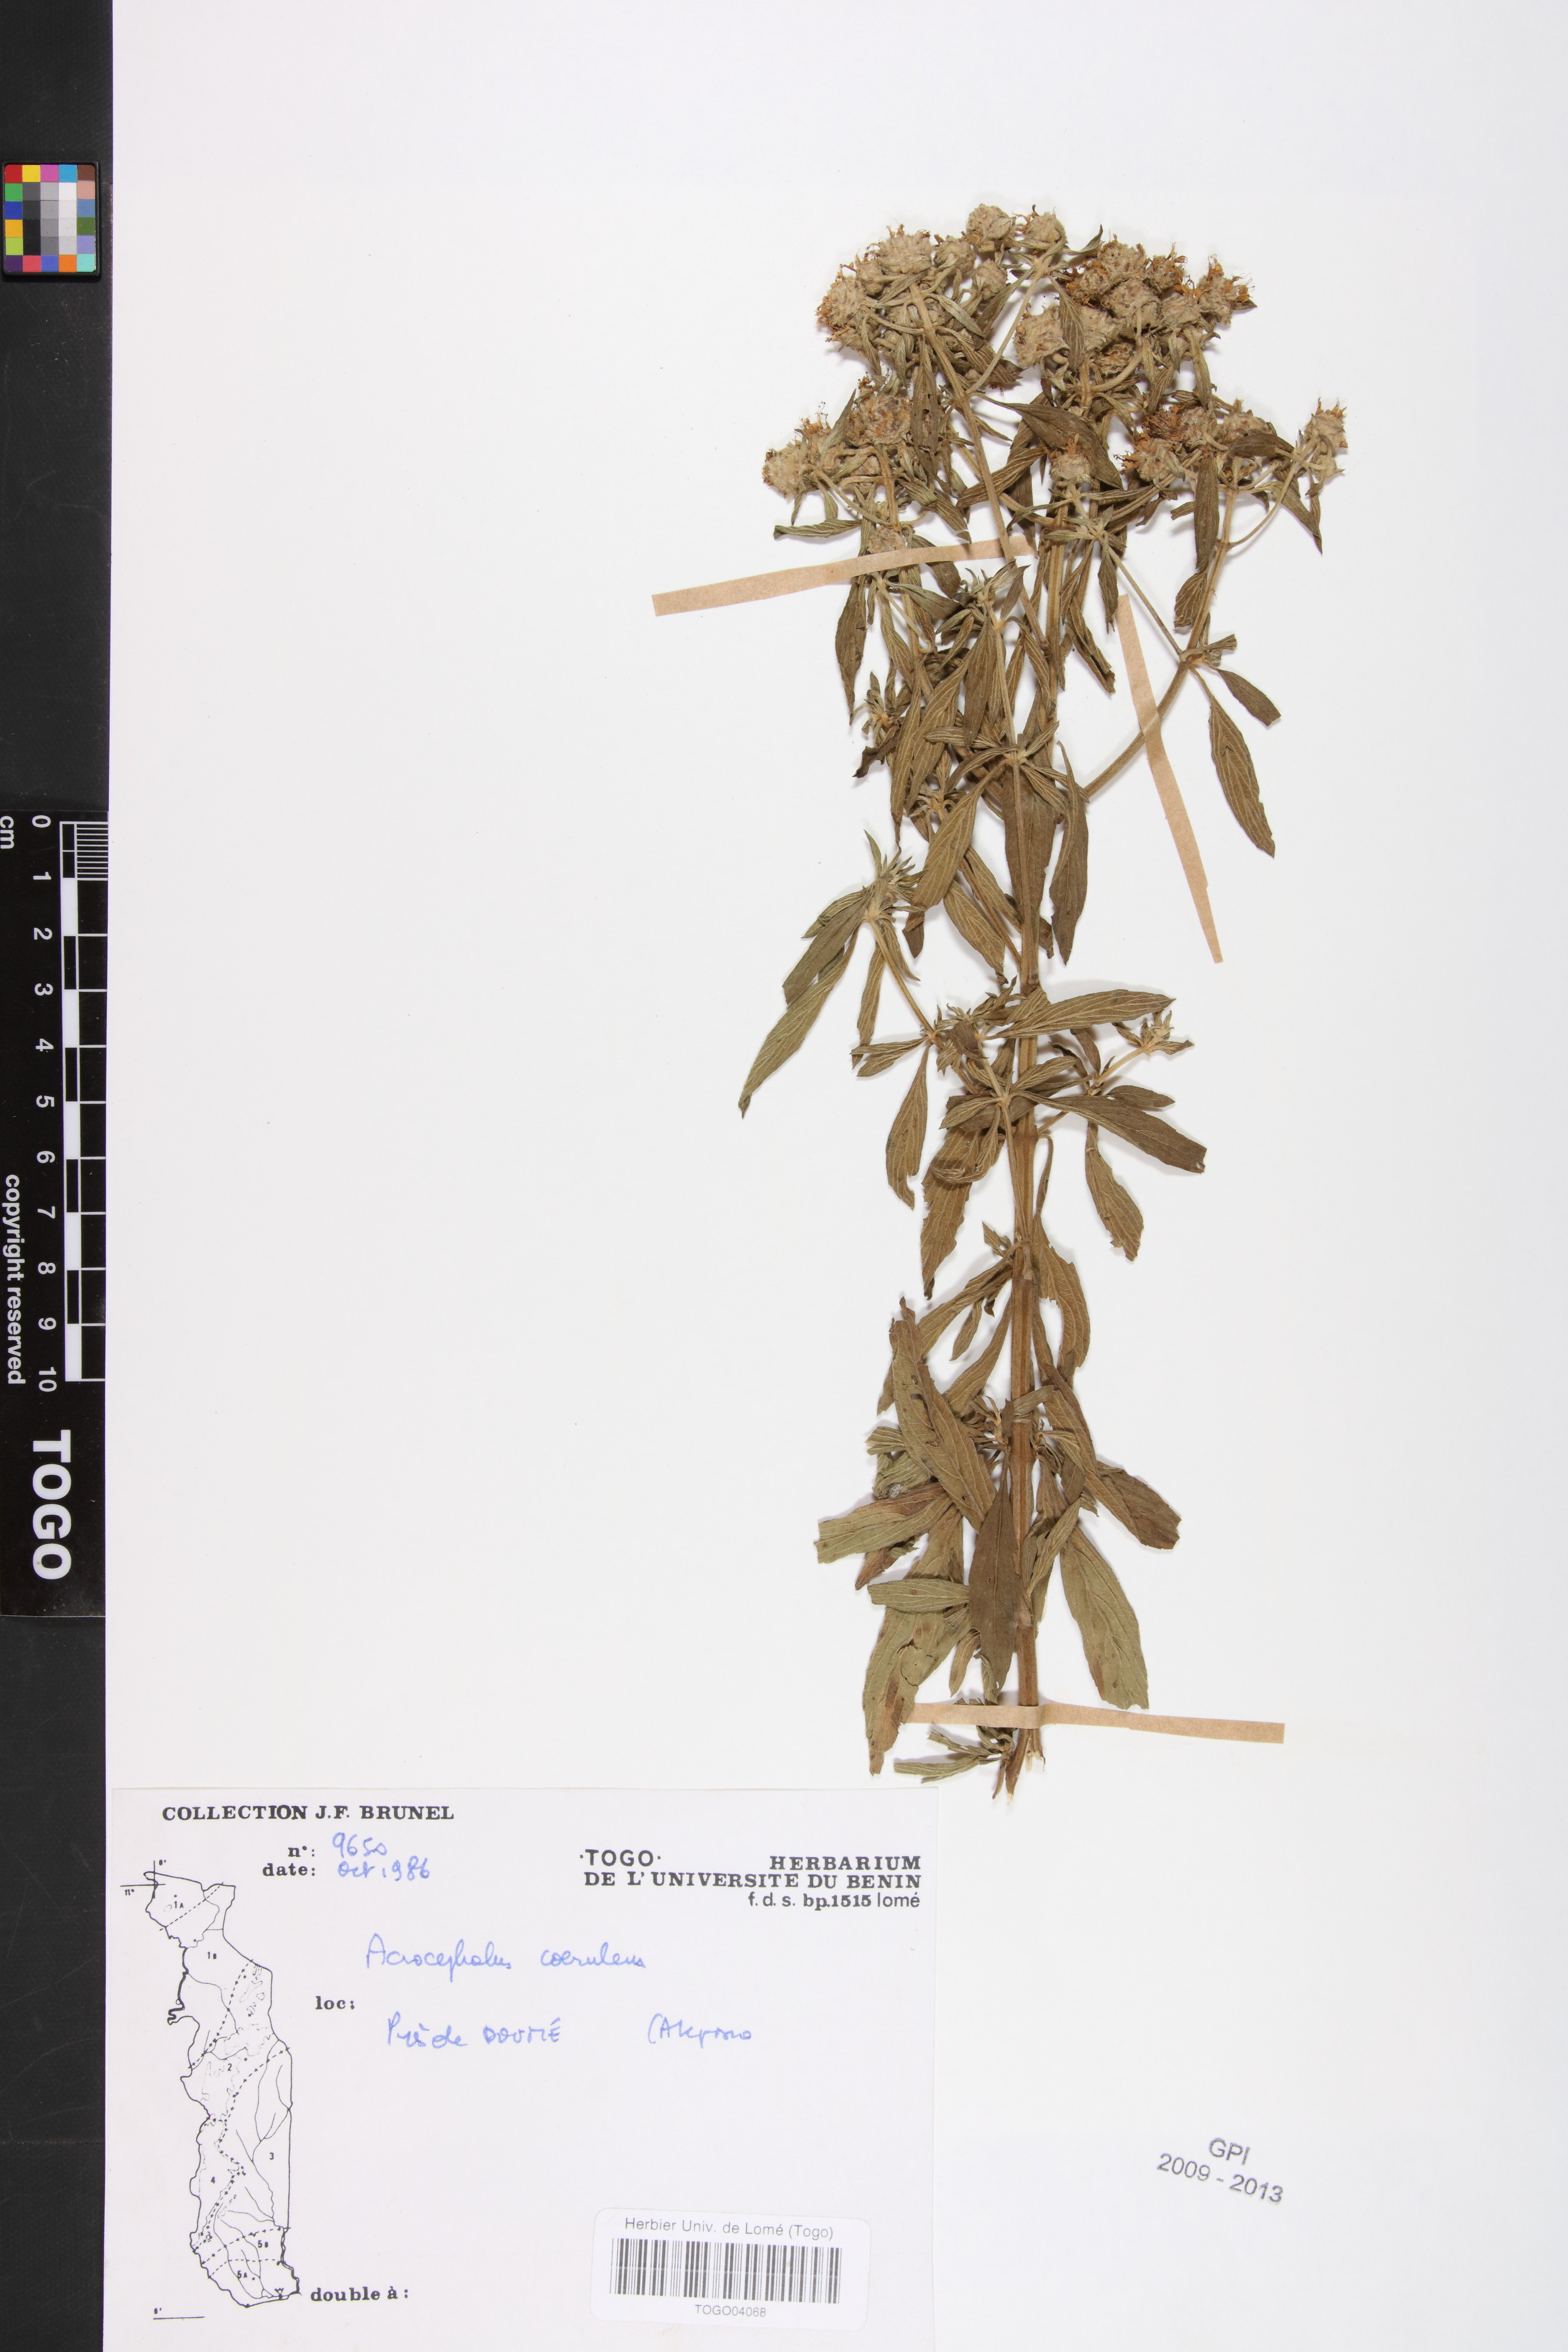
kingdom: Plantae
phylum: Tracheophyta
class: Magnoliopsida
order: Lamiales
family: Lamiaceae
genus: Haumaniastrum
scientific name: Haumaniastrum caeruleum
